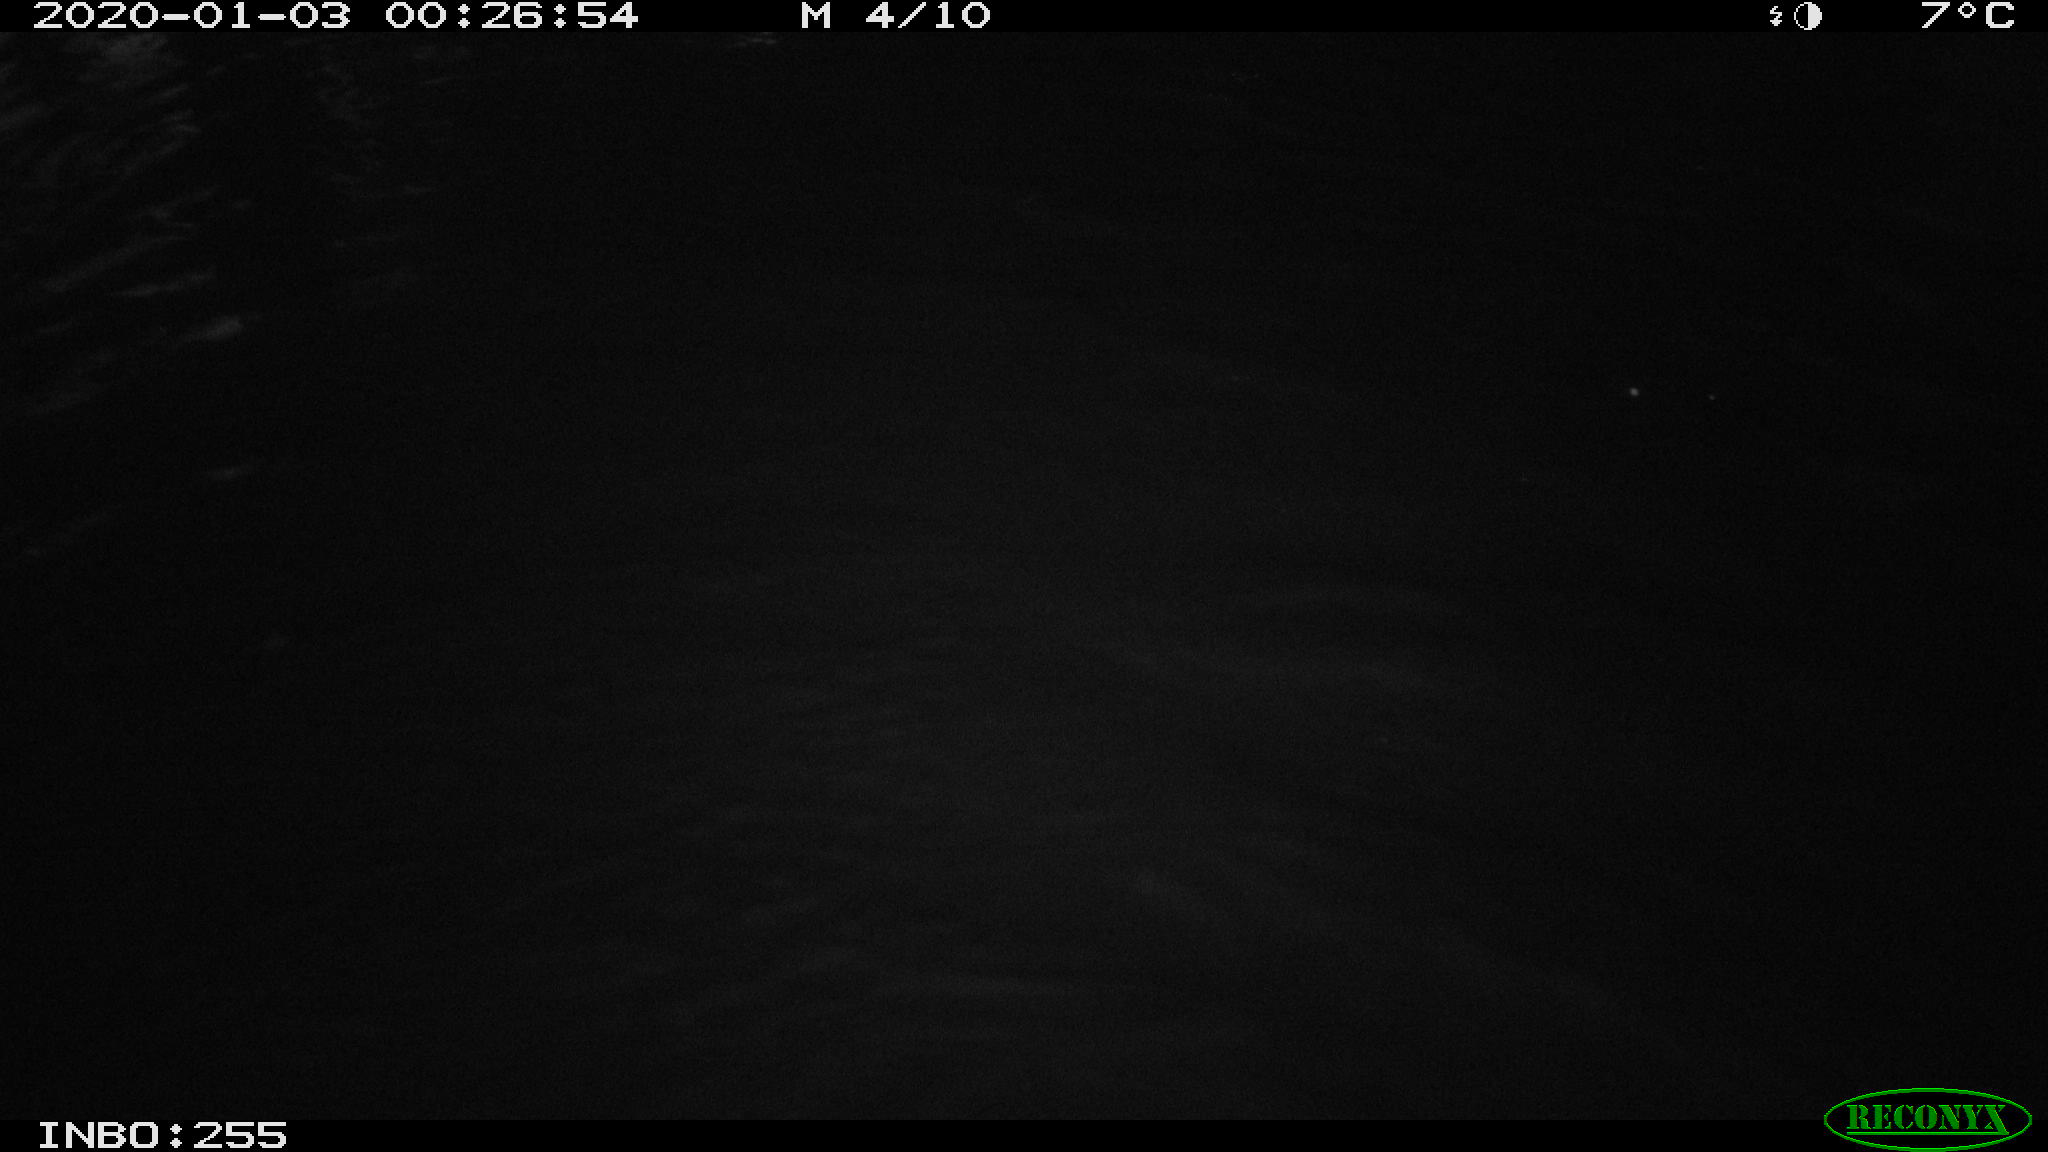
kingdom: Animalia
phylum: Chordata
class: Aves
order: Anseriformes
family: Anatidae
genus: Anas
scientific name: Anas platyrhynchos
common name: Mallard
